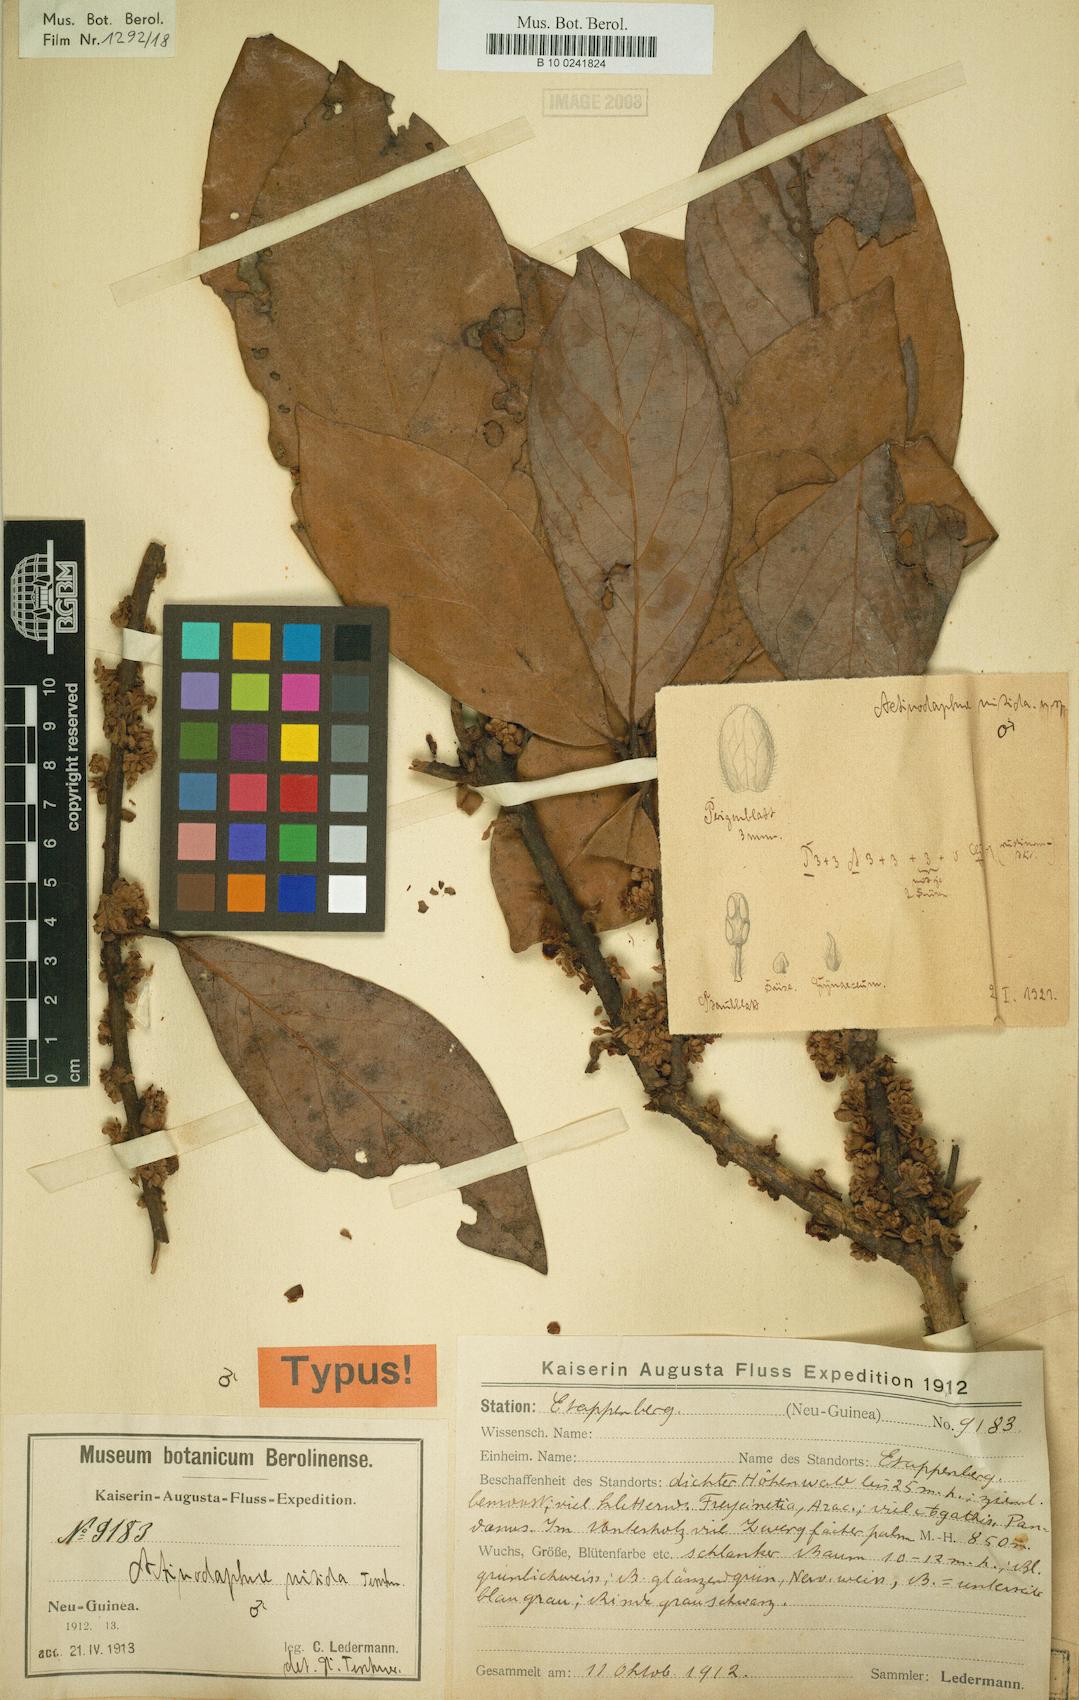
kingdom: Plantae
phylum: Tracheophyta
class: Magnoliopsida
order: Laurales
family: Lauraceae
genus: Actinodaphne
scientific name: Actinodaphne nitida
